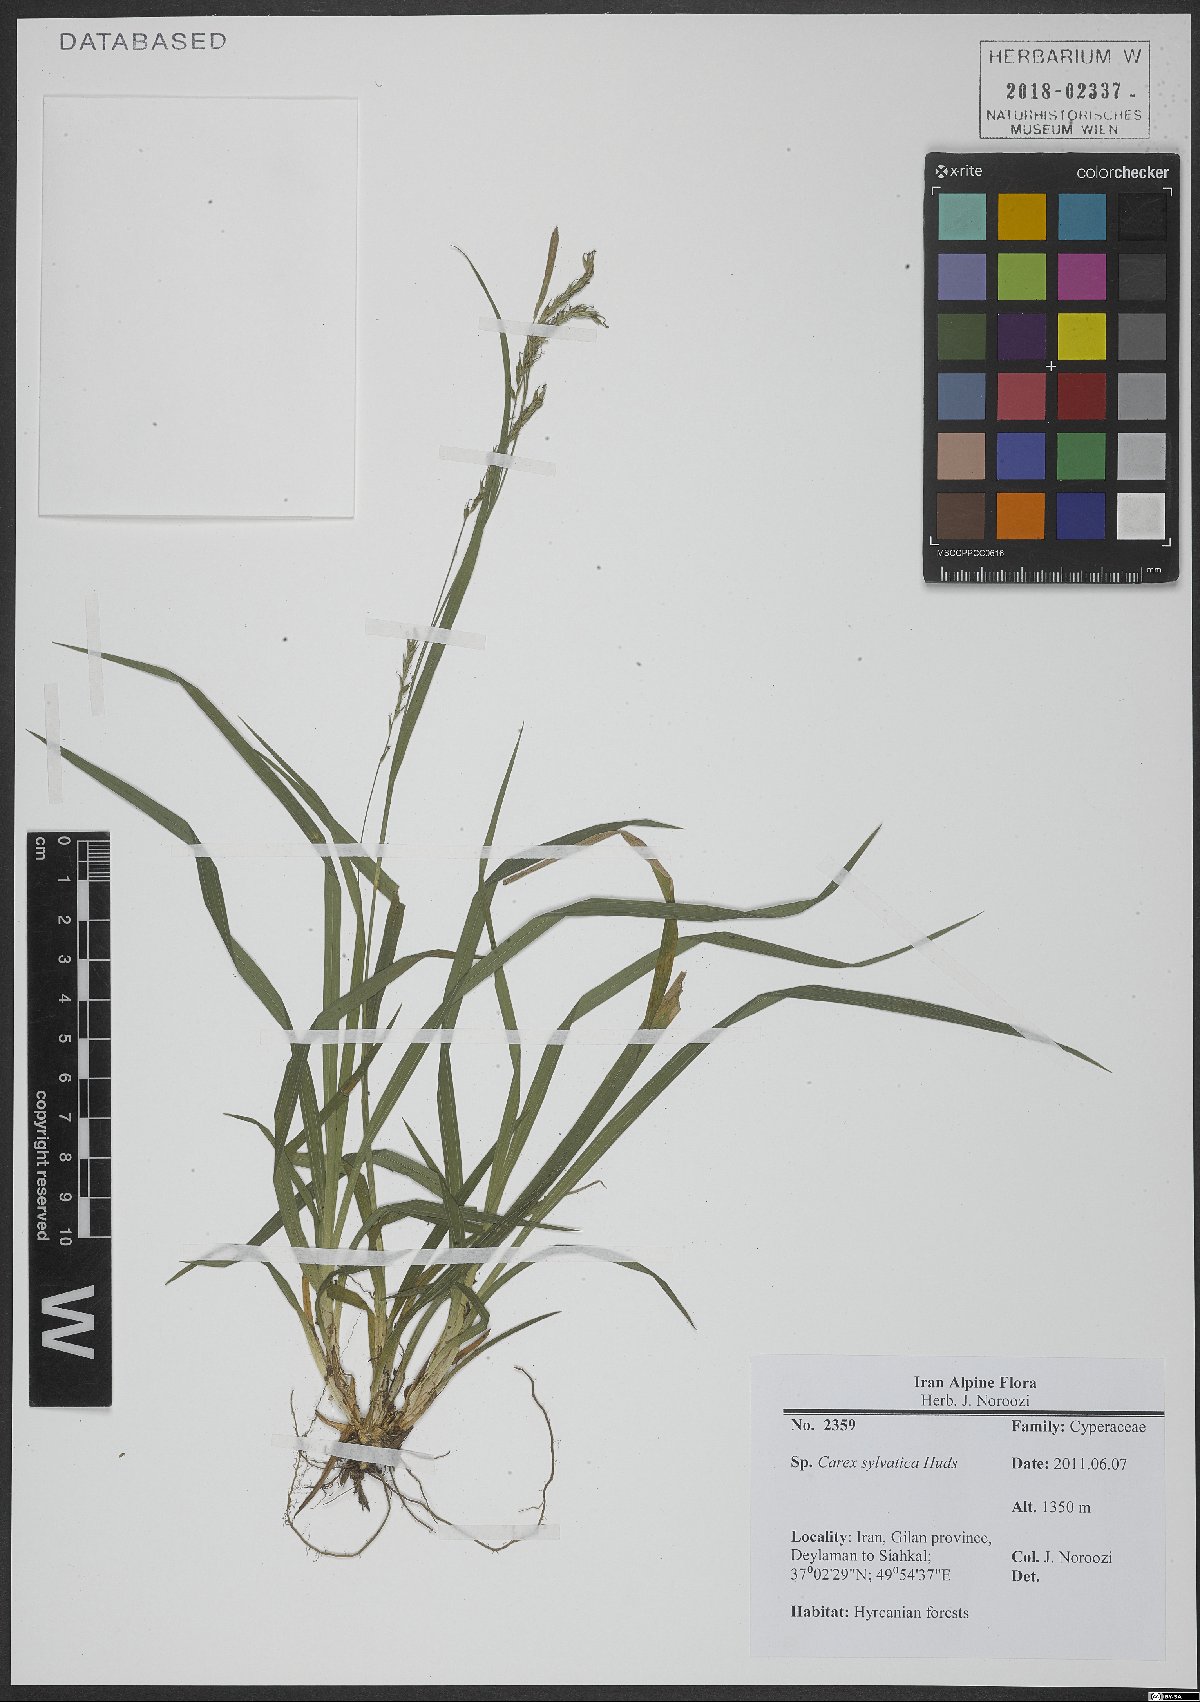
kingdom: Plantae
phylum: Tracheophyta
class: Liliopsida
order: Poales
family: Cyperaceae
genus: Carex
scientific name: Carex sylvatica
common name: Wood-sedge
